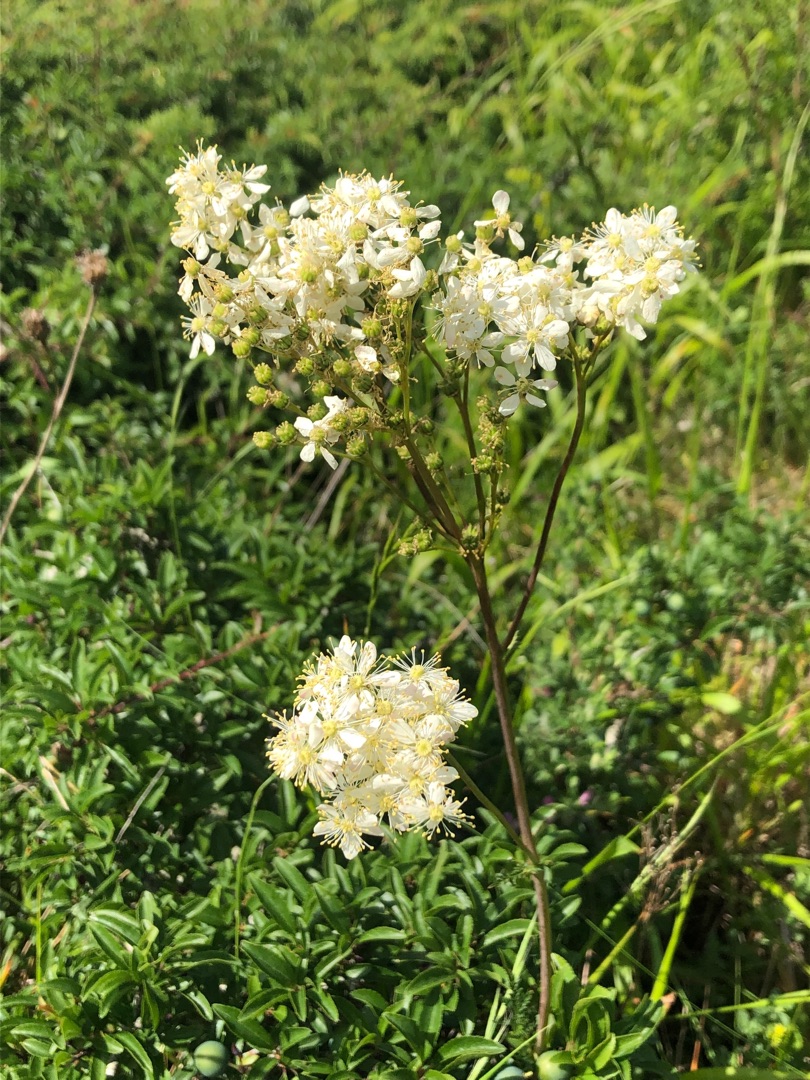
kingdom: Plantae
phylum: Tracheophyta
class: Magnoliopsida
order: Rosales
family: Rosaceae
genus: Filipendula
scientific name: Filipendula vulgaris
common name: Knoldet mjødurt
